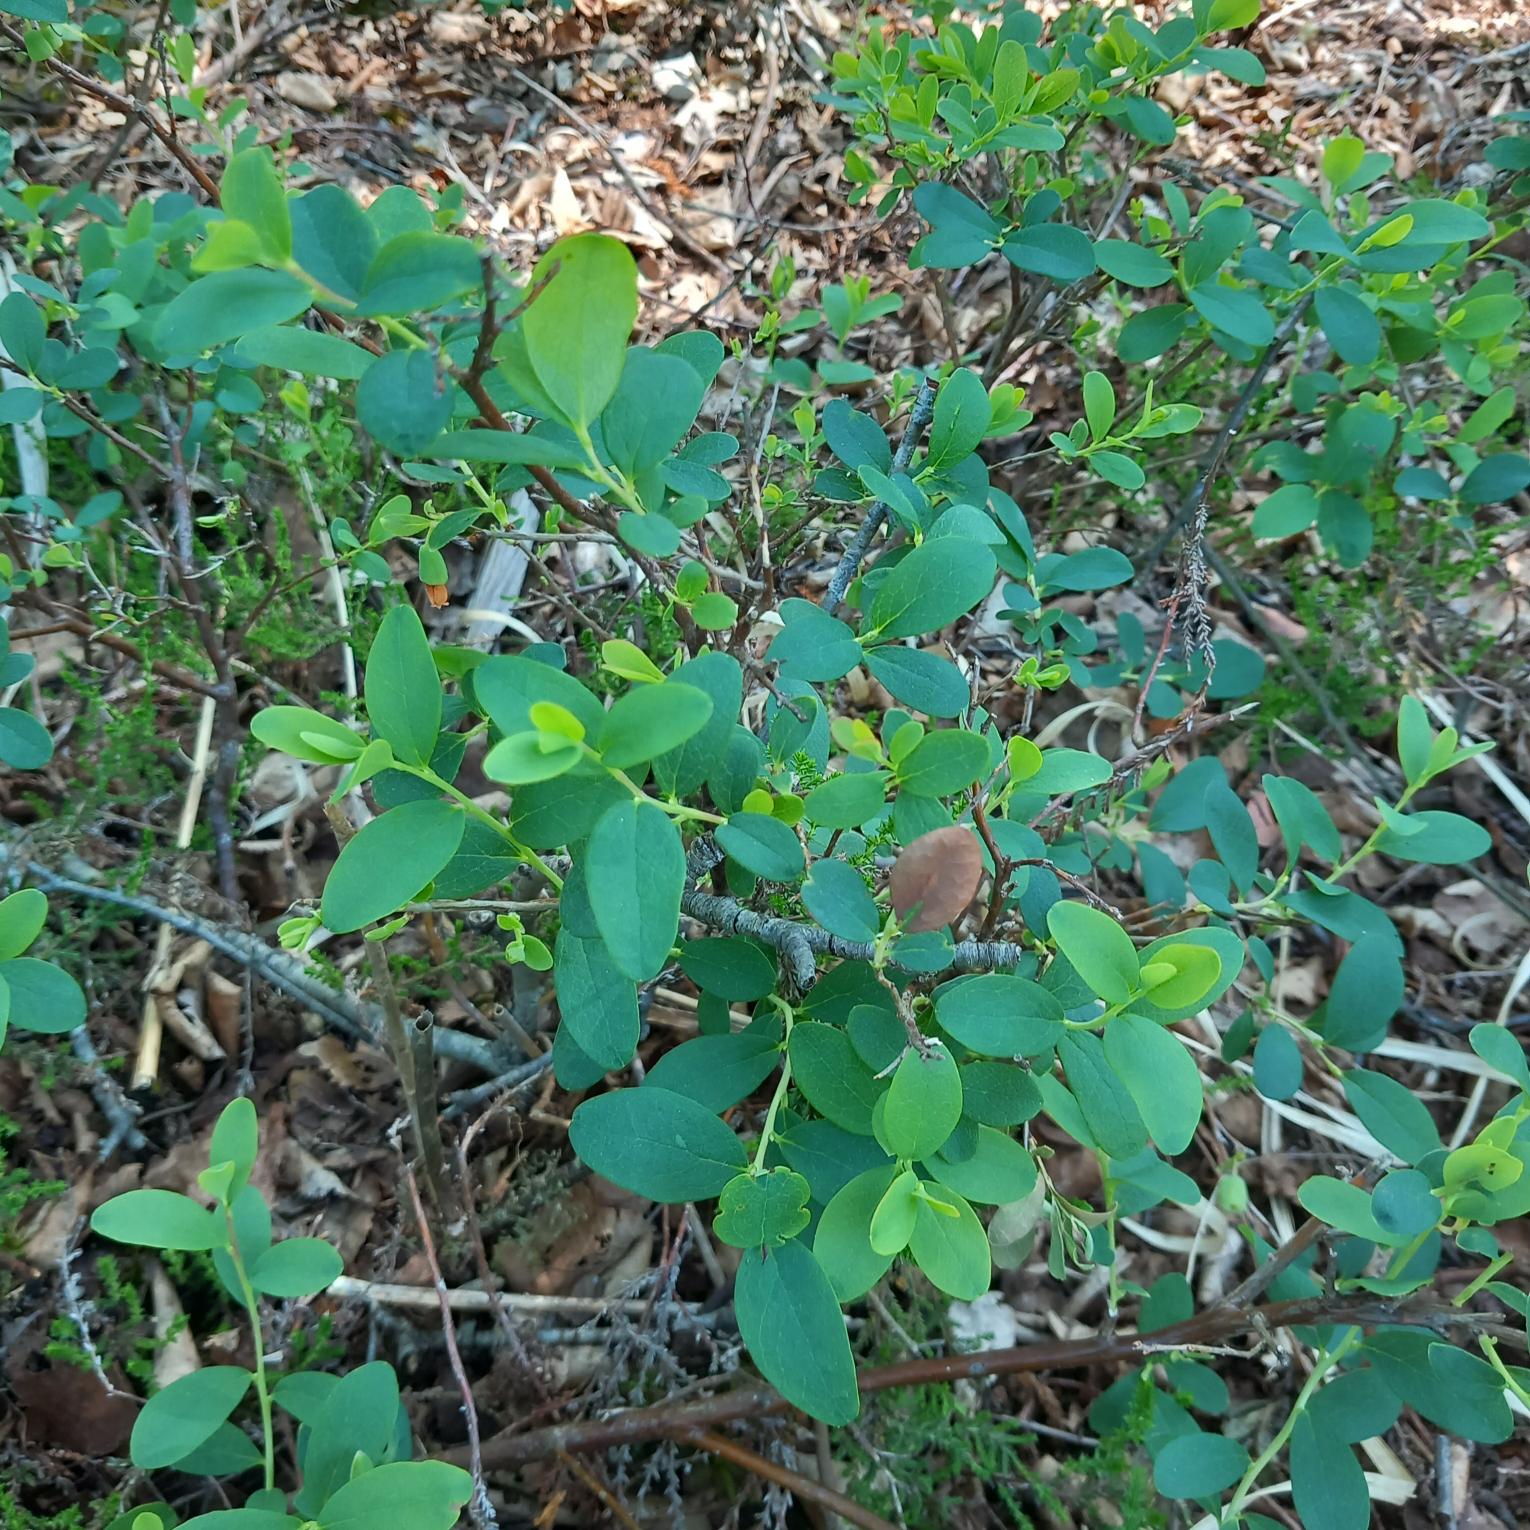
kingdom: Plantae
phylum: Tracheophyta
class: Magnoliopsida
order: Ericales
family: Ericaceae
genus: Vaccinium
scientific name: Vaccinium uliginosum
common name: Mose-bølle
